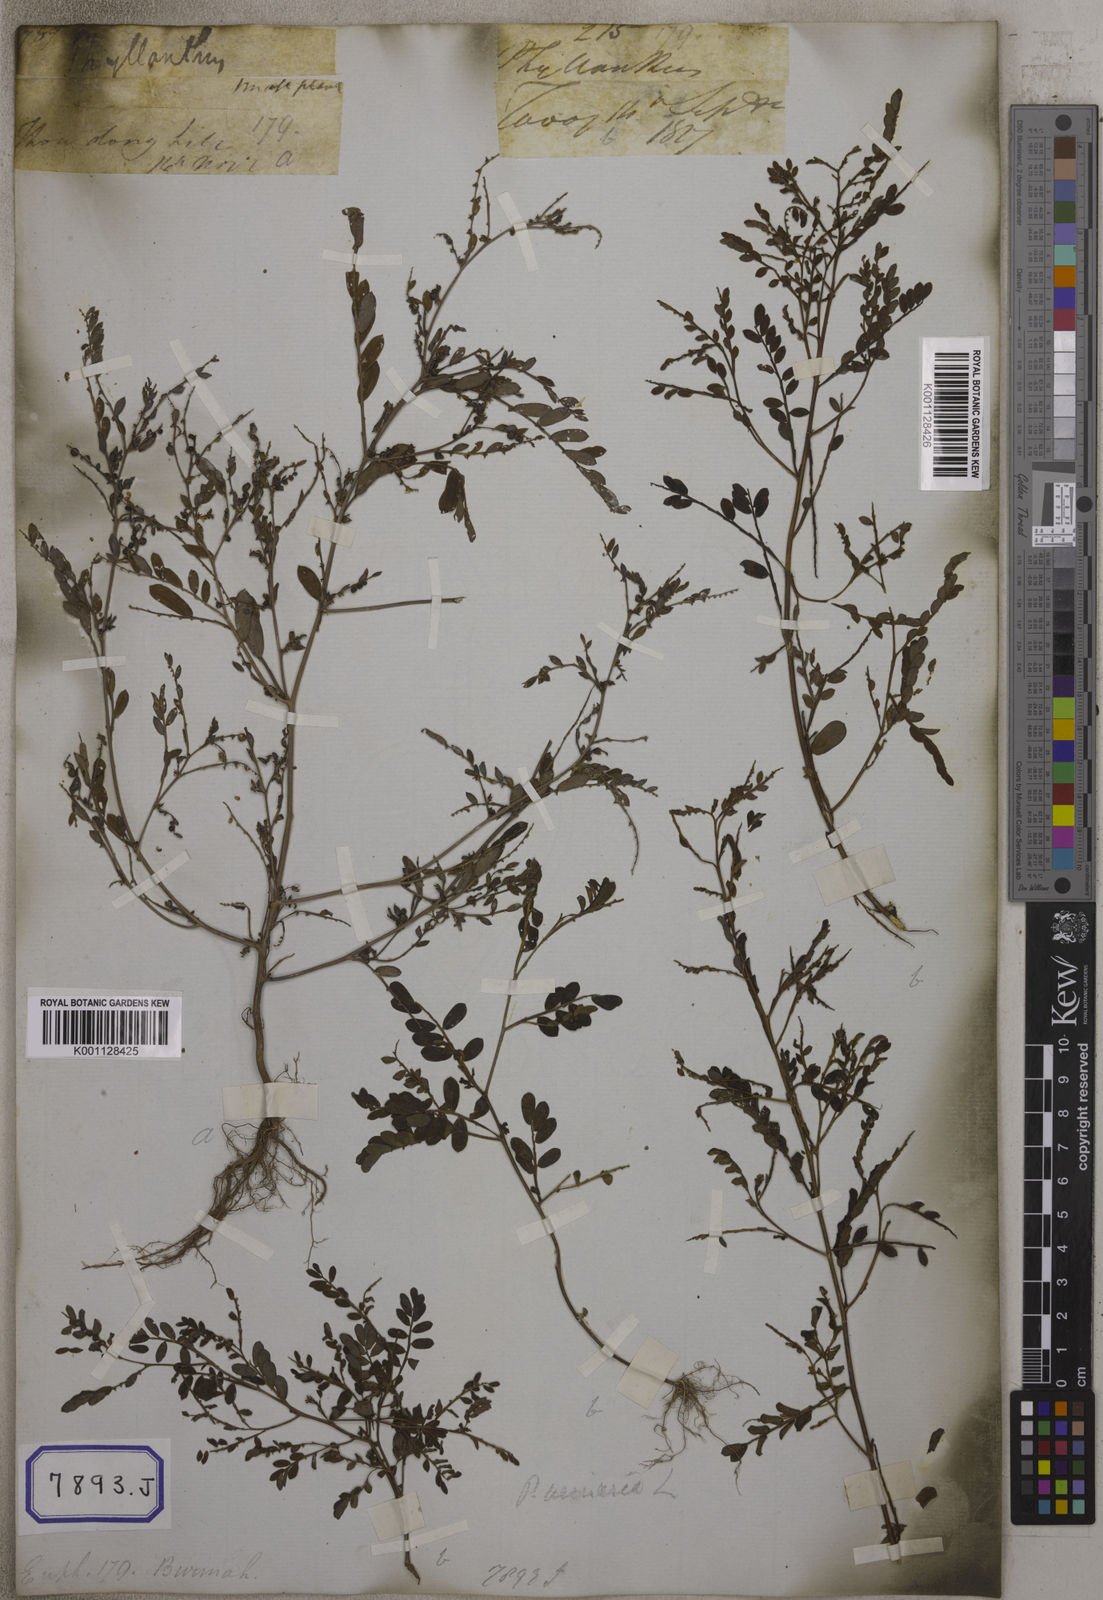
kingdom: Plantae
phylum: Tracheophyta
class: Magnoliopsida
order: Malpighiales
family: Euphorbiaceae
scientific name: Euphorbiaceae
